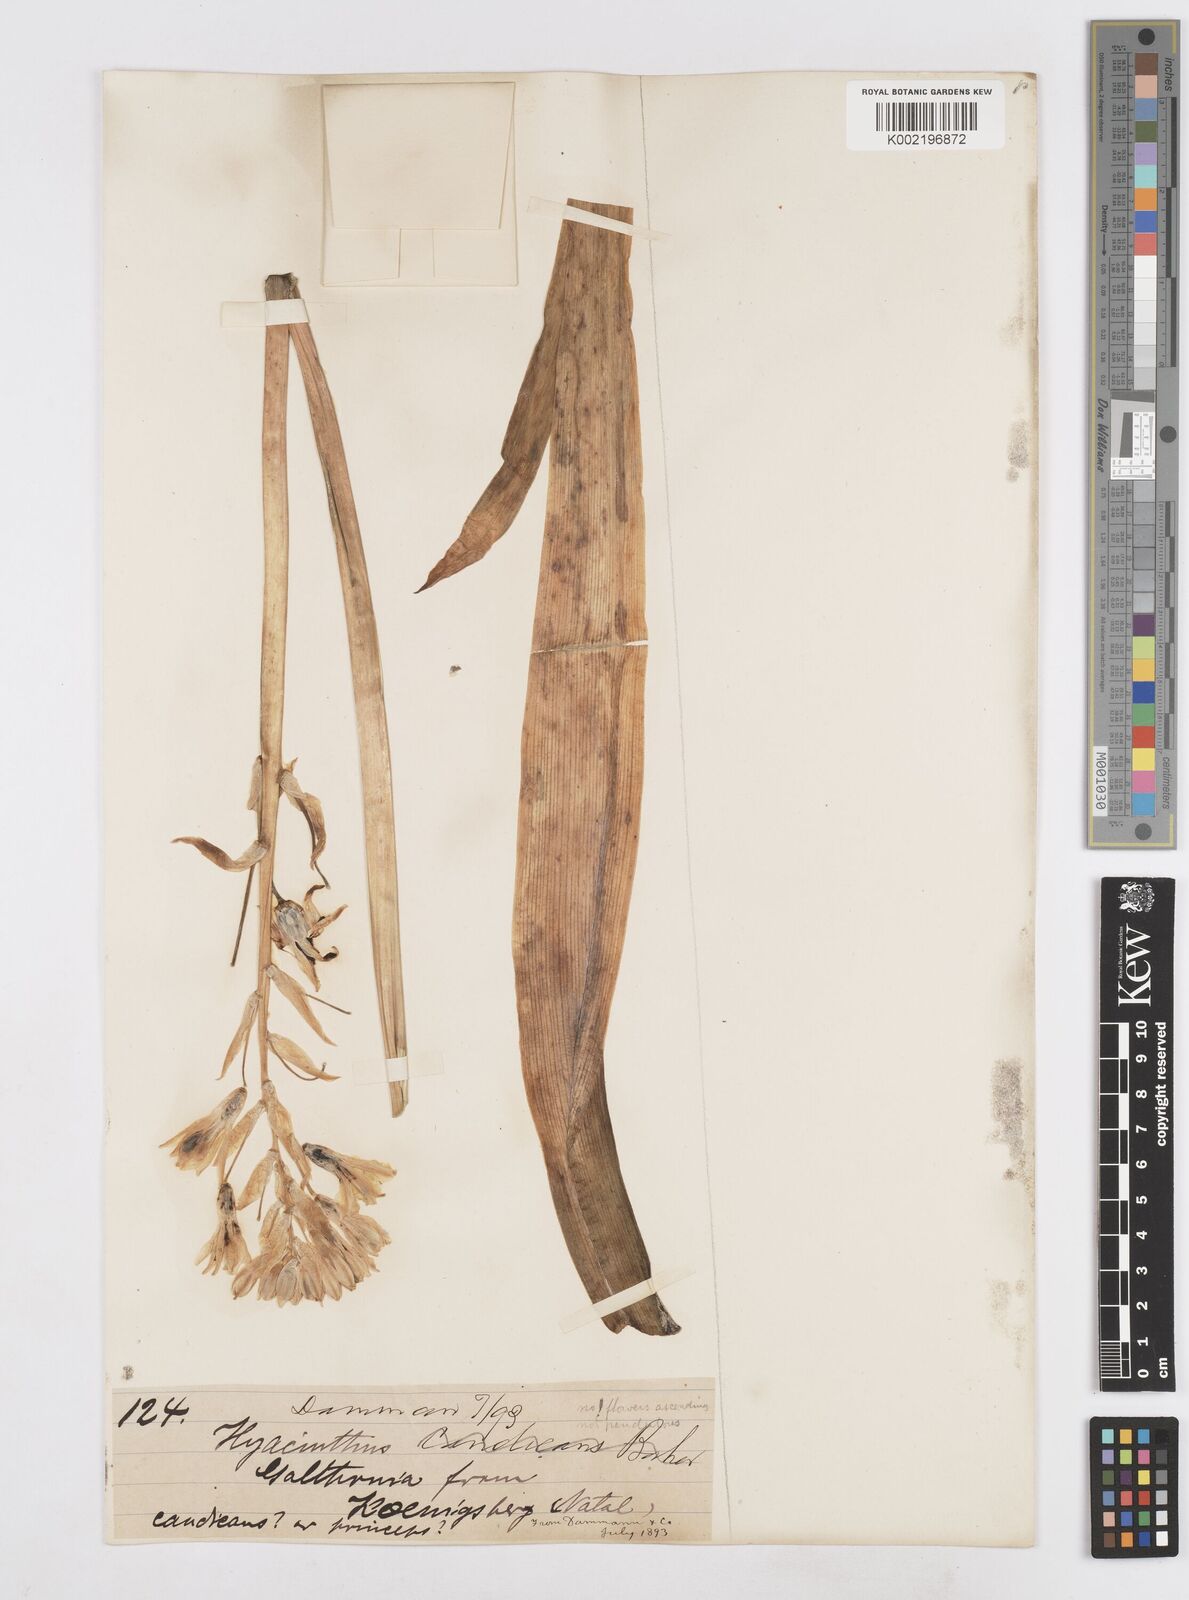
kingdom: Plantae
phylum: Tracheophyta
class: Liliopsida
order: Asparagales
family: Asparagaceae
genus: Ornithogalum
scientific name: Ornithogalum princeps
